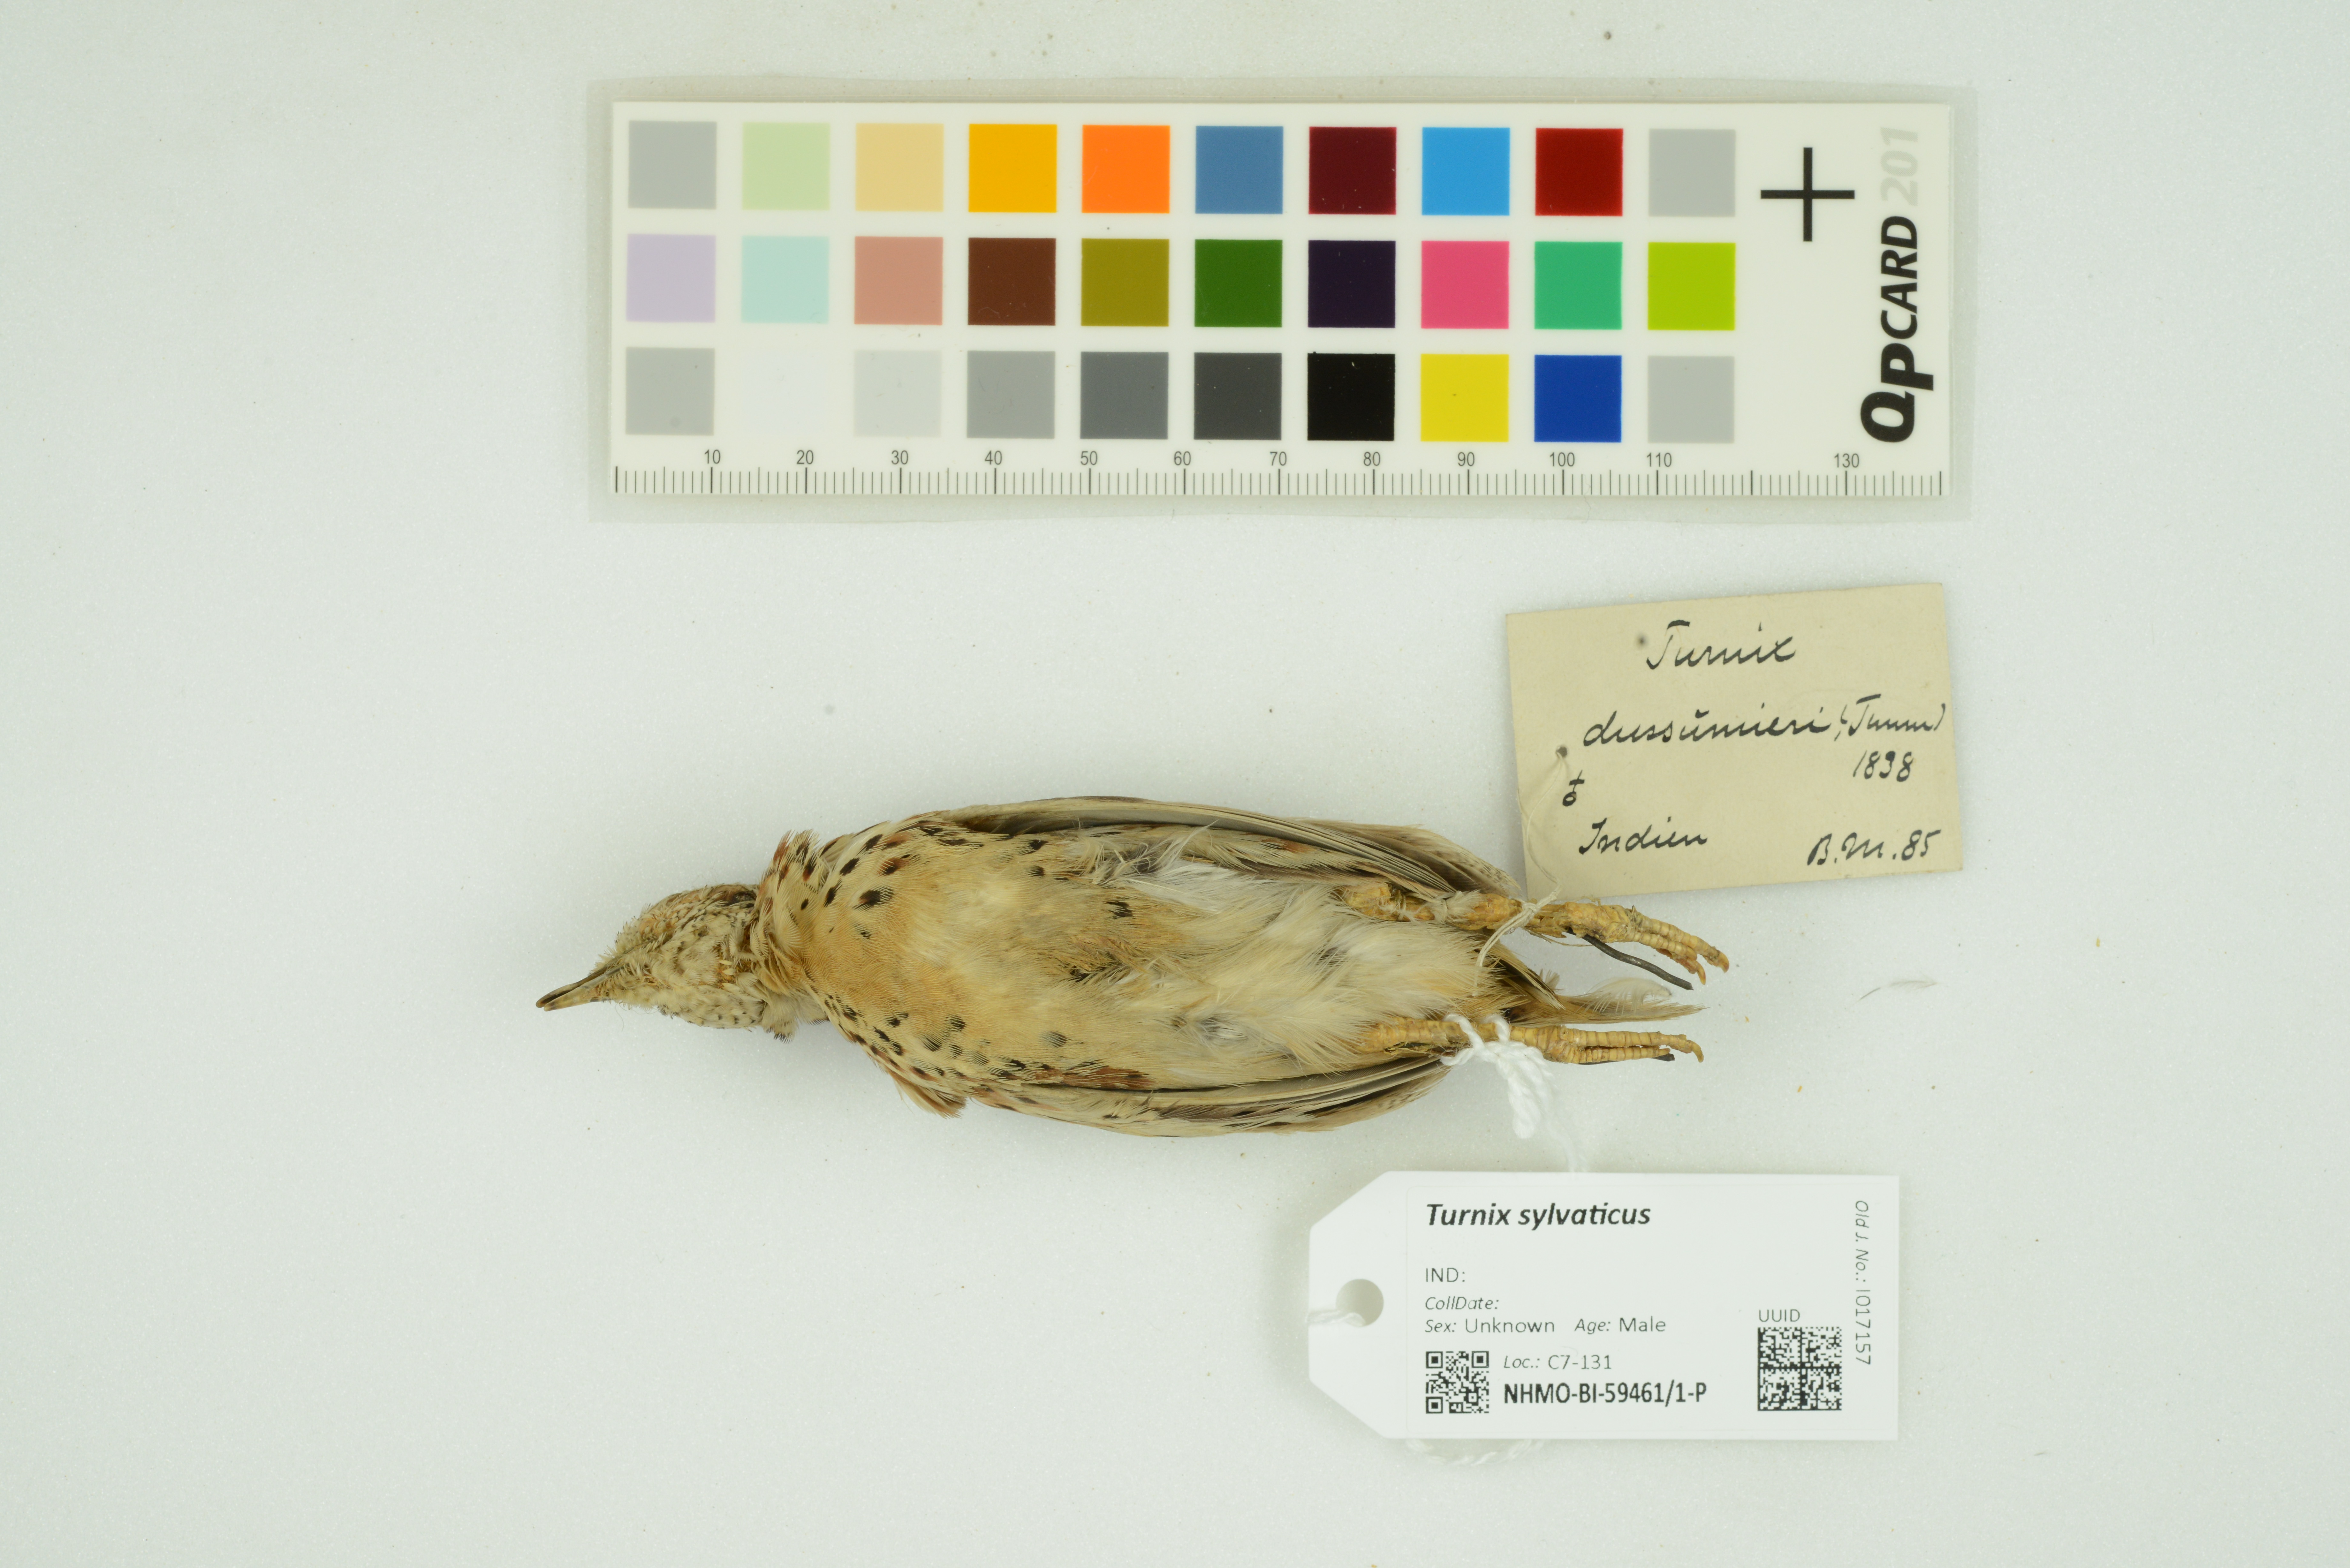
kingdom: Animalia
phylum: Chordata
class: Aves
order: Charadriiformes
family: Turnicidae
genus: Turnix
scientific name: Turnix sylvaticus
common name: Common buttonquail
